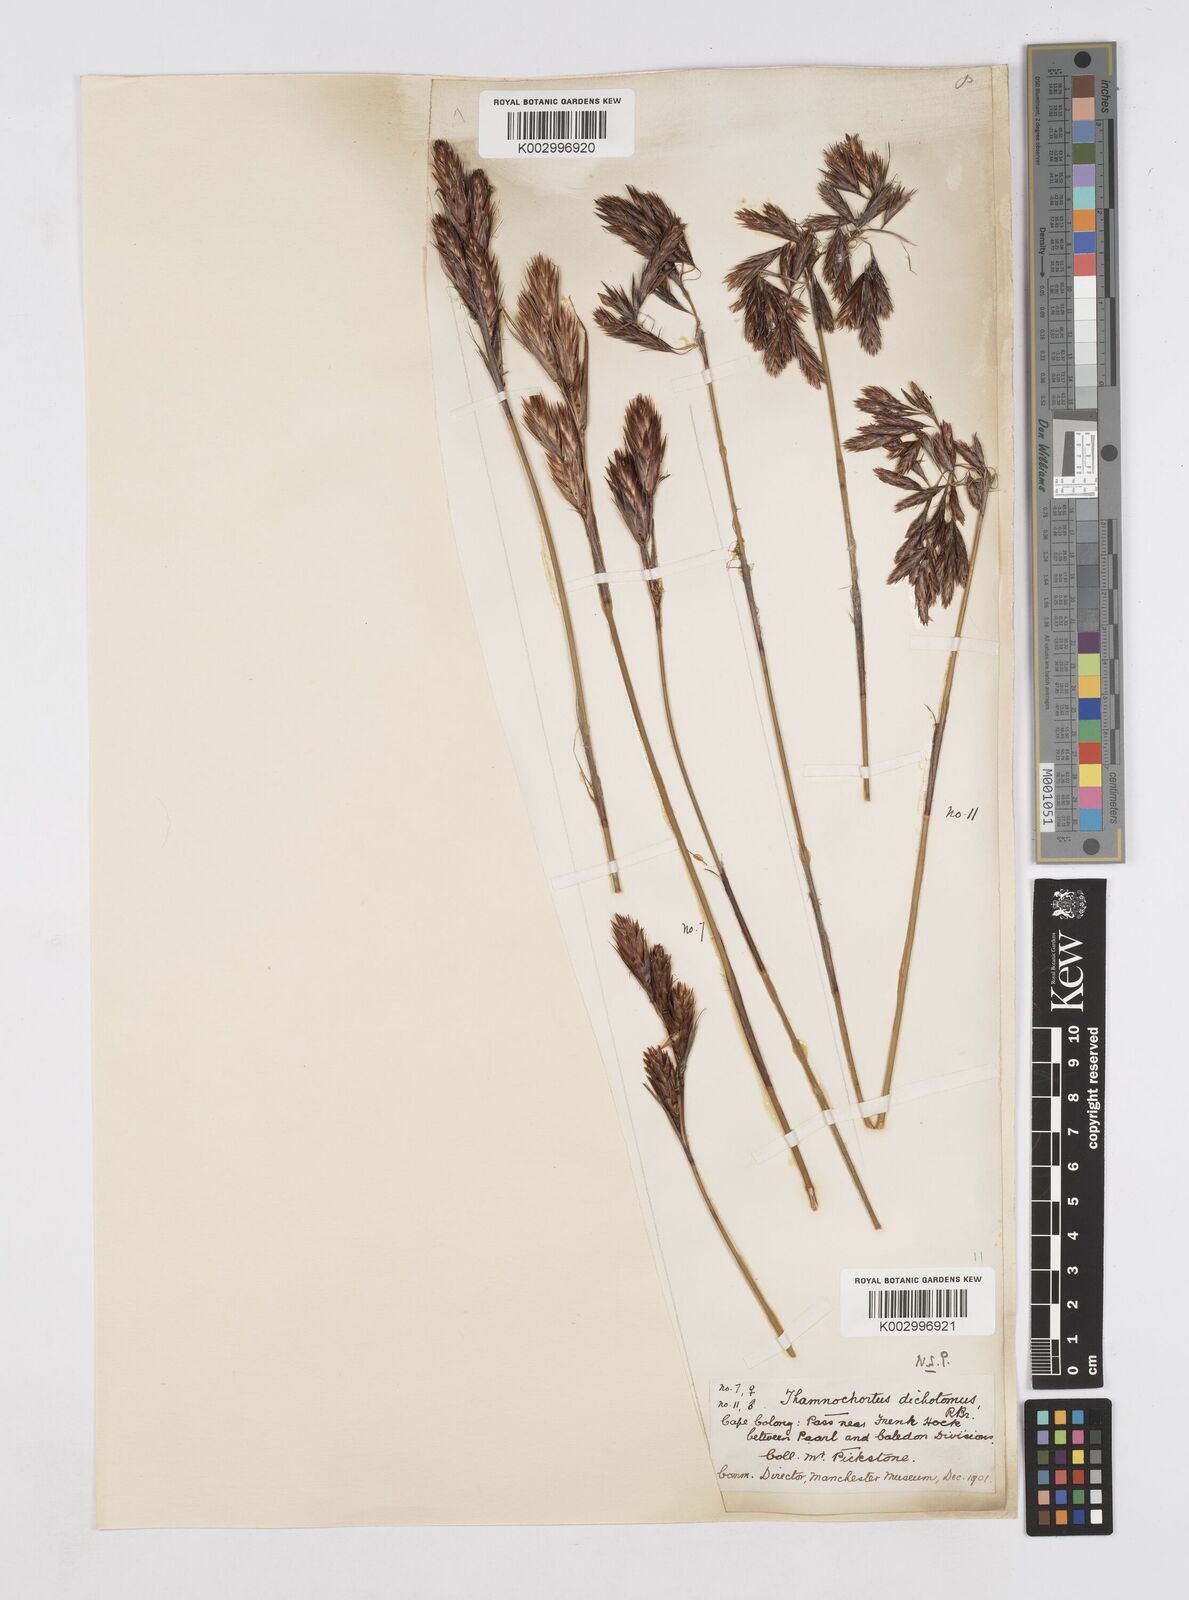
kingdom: Plantae
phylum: Tracheophyta
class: Liliopsida
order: Poales
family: Restionaceae
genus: Thamnochortus
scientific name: Thamnochortus lucens
